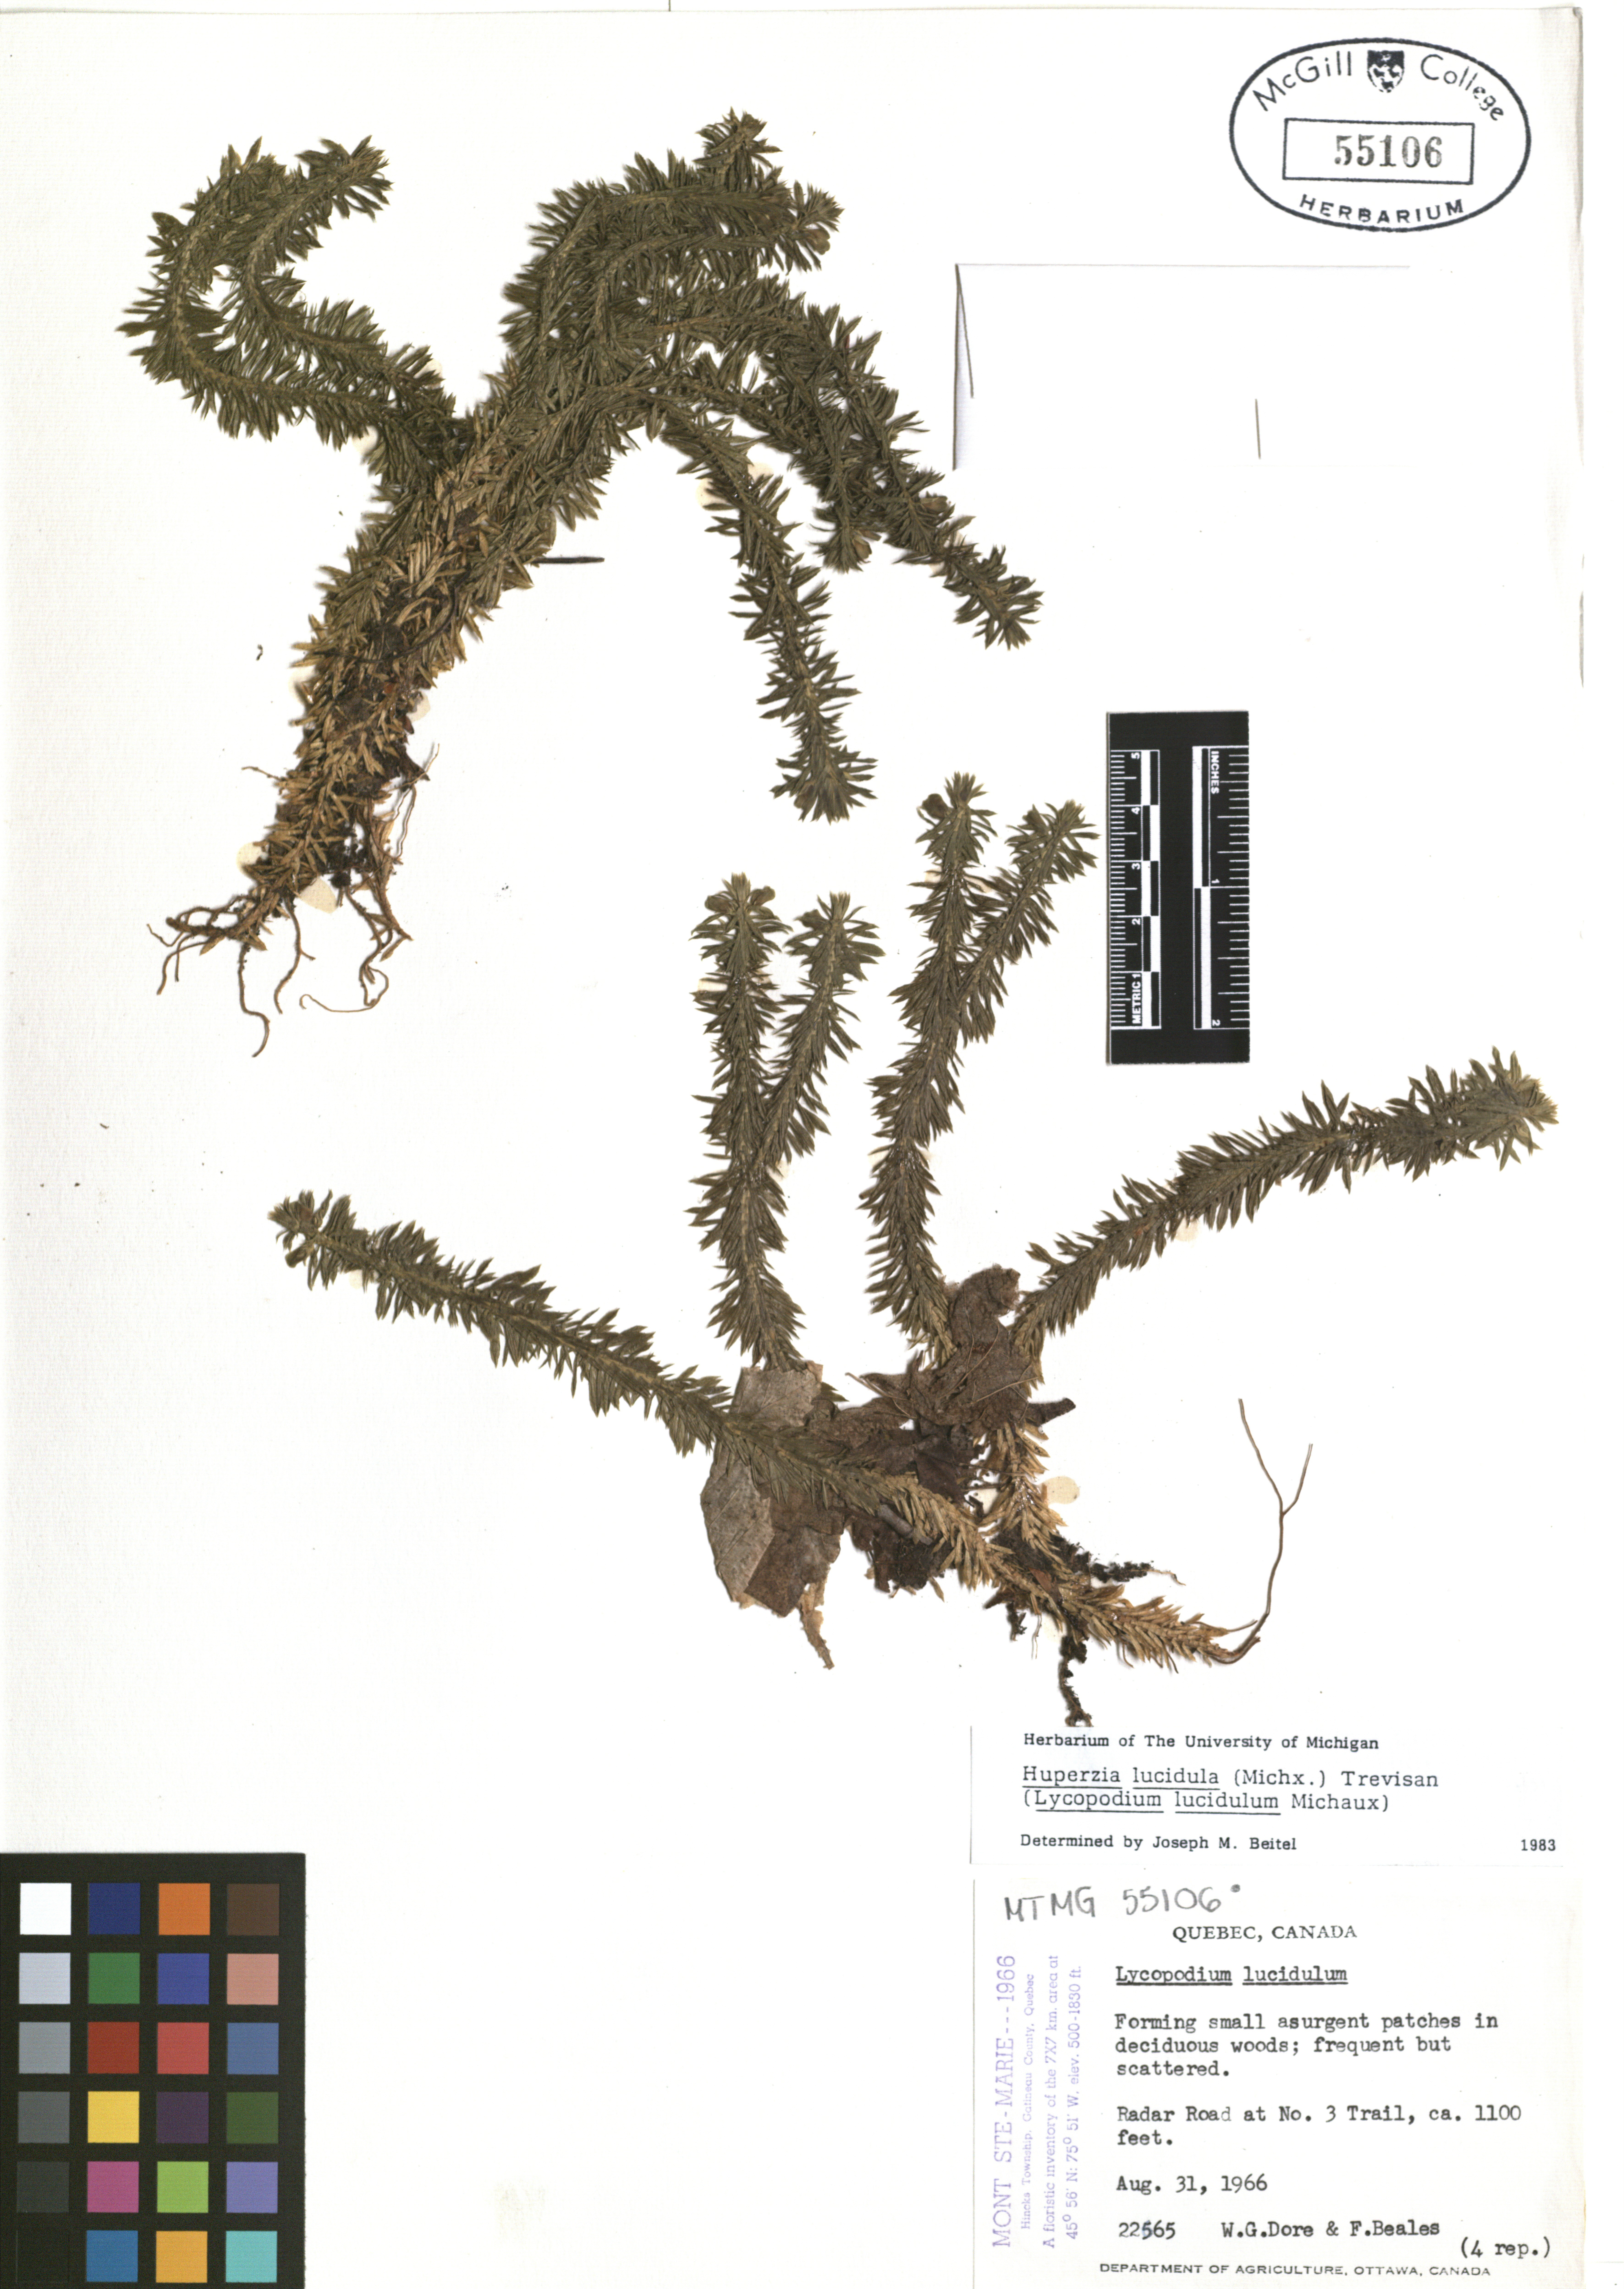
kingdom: Plantae
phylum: Tracheophyta
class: Lycopodiopsida
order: Lycopodiales
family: Lycopodiaceae
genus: Huperzia
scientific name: Huperzia lucidula
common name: Shining clubmoss
